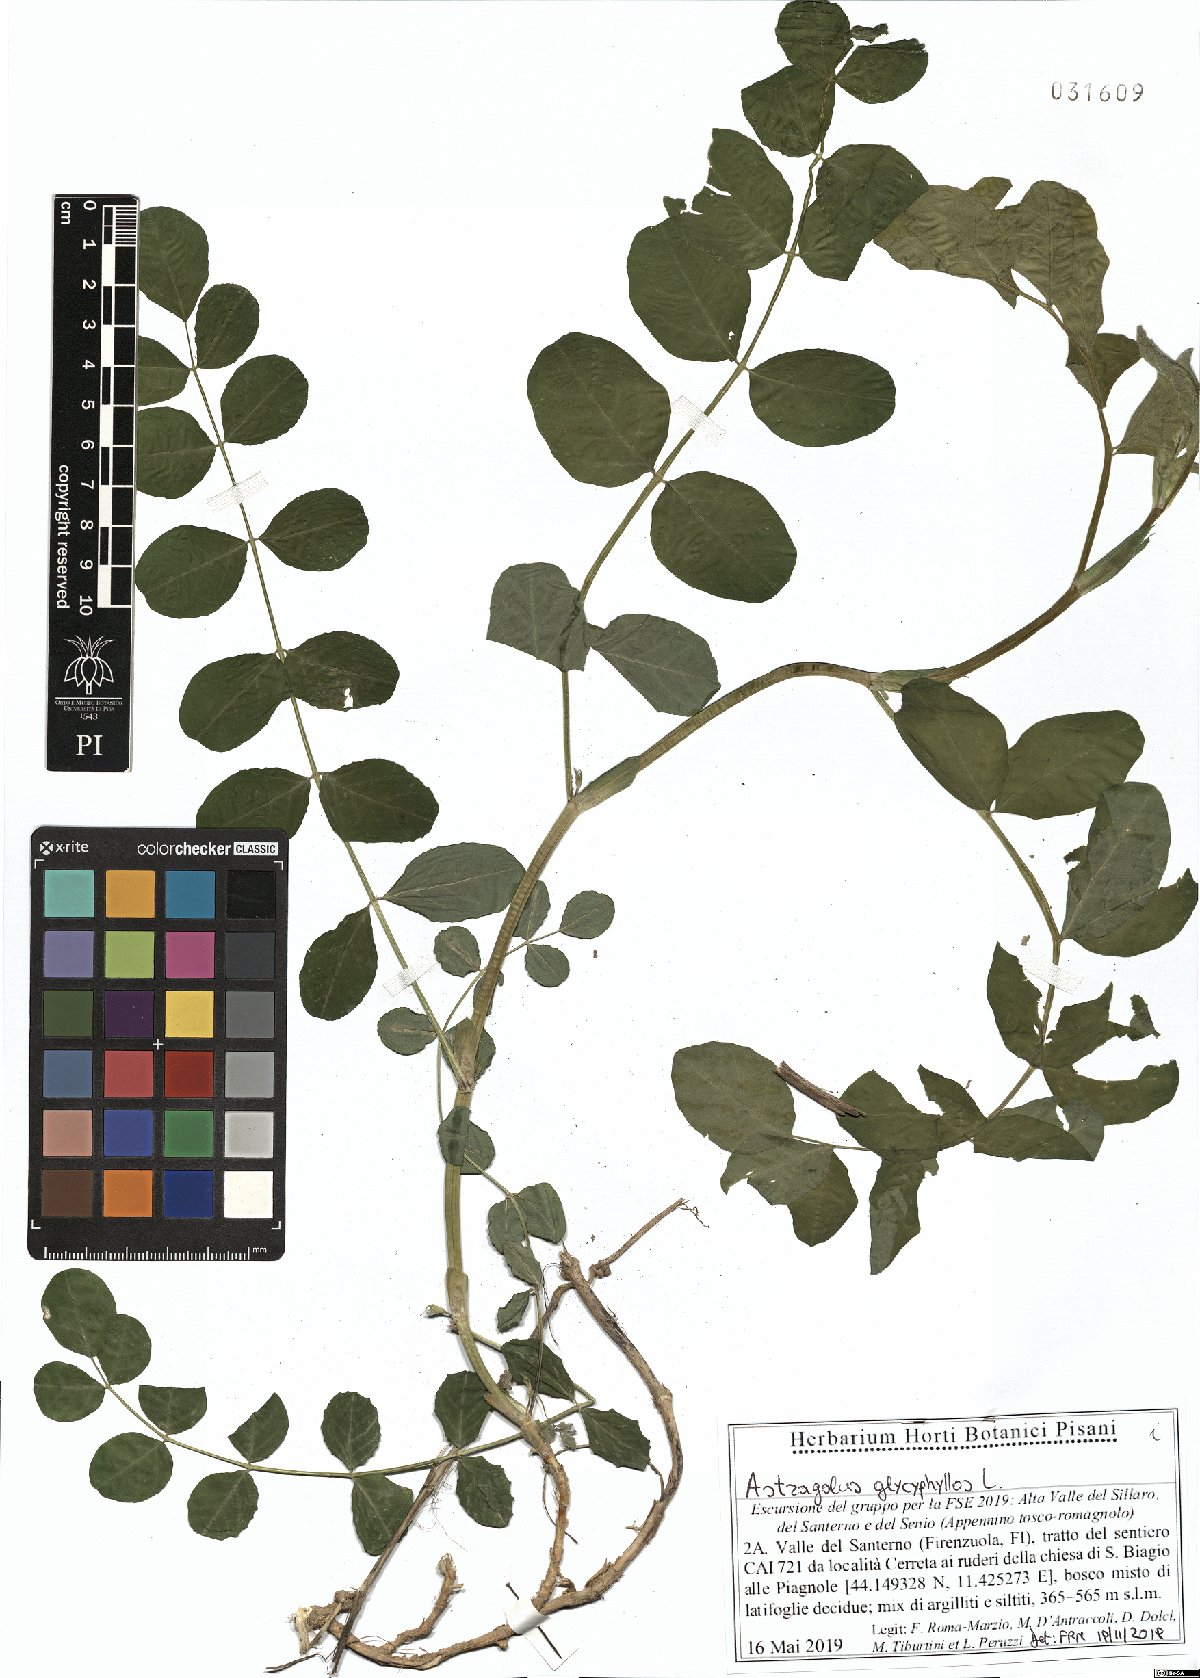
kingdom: Plantae
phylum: Tracheophyta
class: Magnoliopsida
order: Fabales
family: Fabaceae
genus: Astragalus
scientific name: Astragalus glycyphyllos
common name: Wild liquorice
